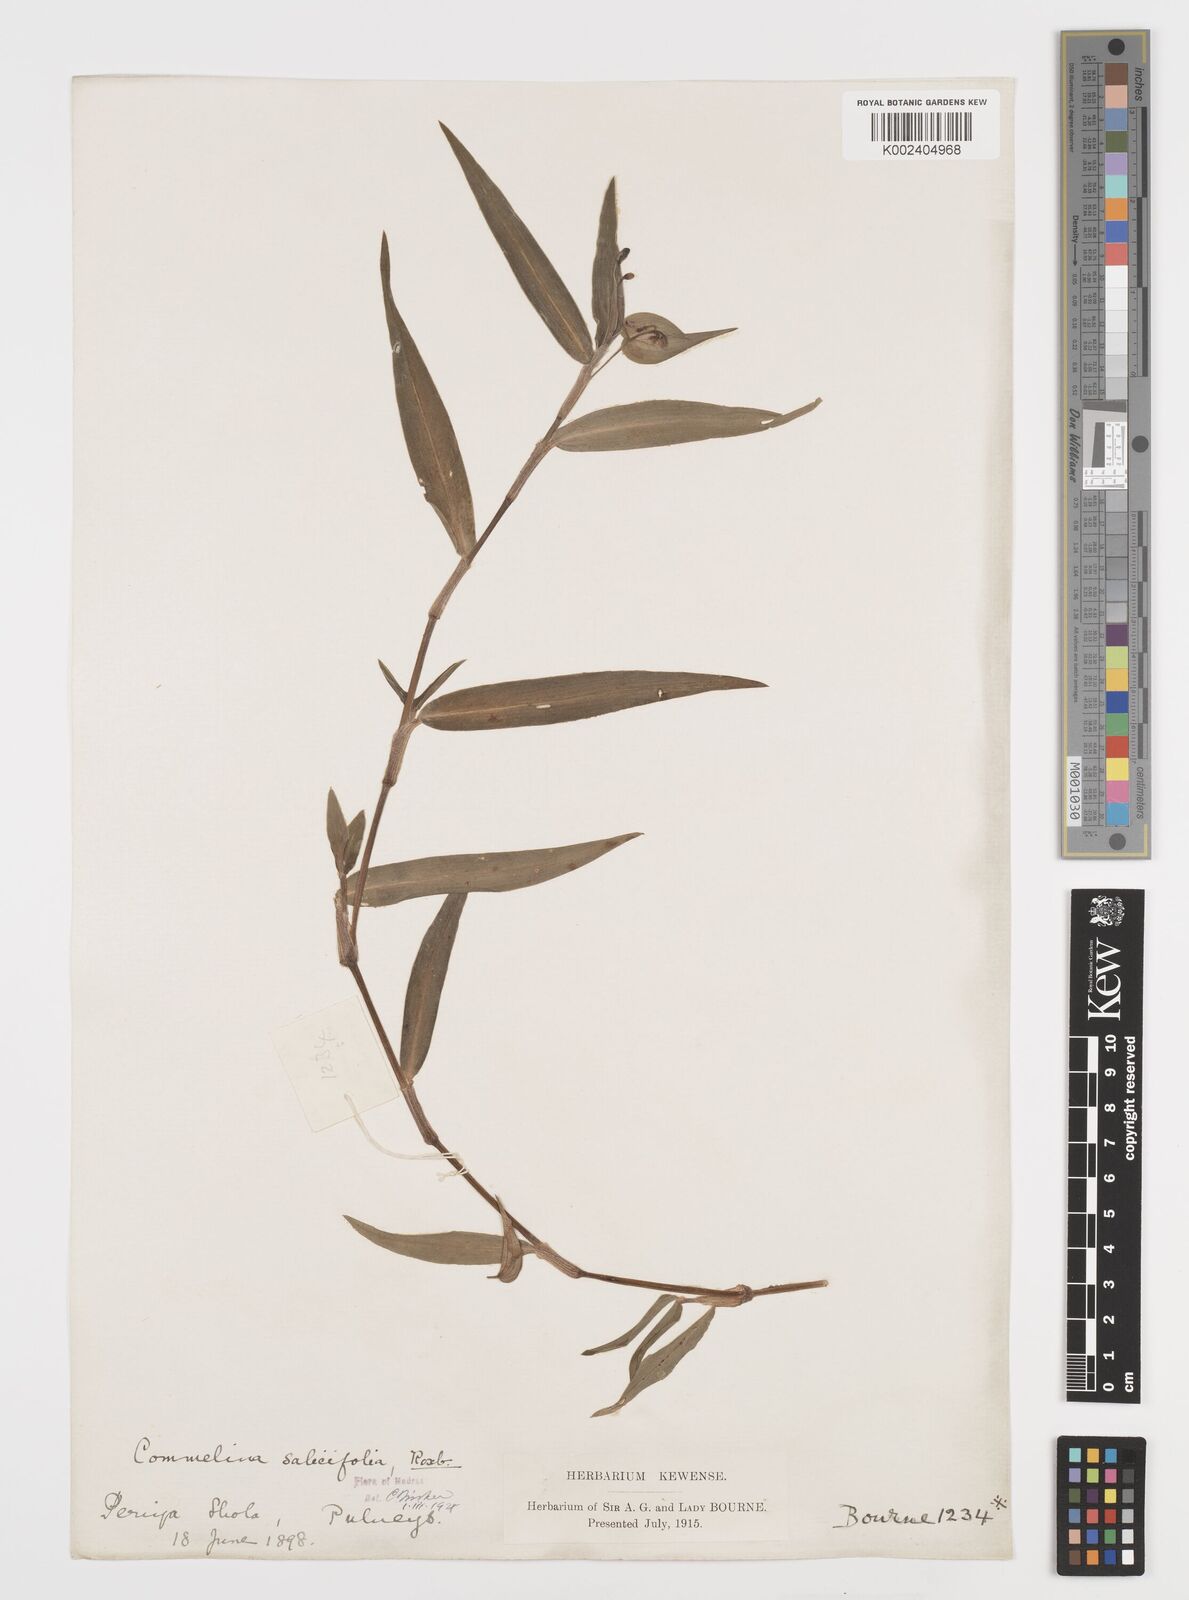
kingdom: Plantae
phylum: Tracheophyta
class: Liliopsida
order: Commelinales
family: Commelinaceae
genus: Commelina
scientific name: Commelina undulata
